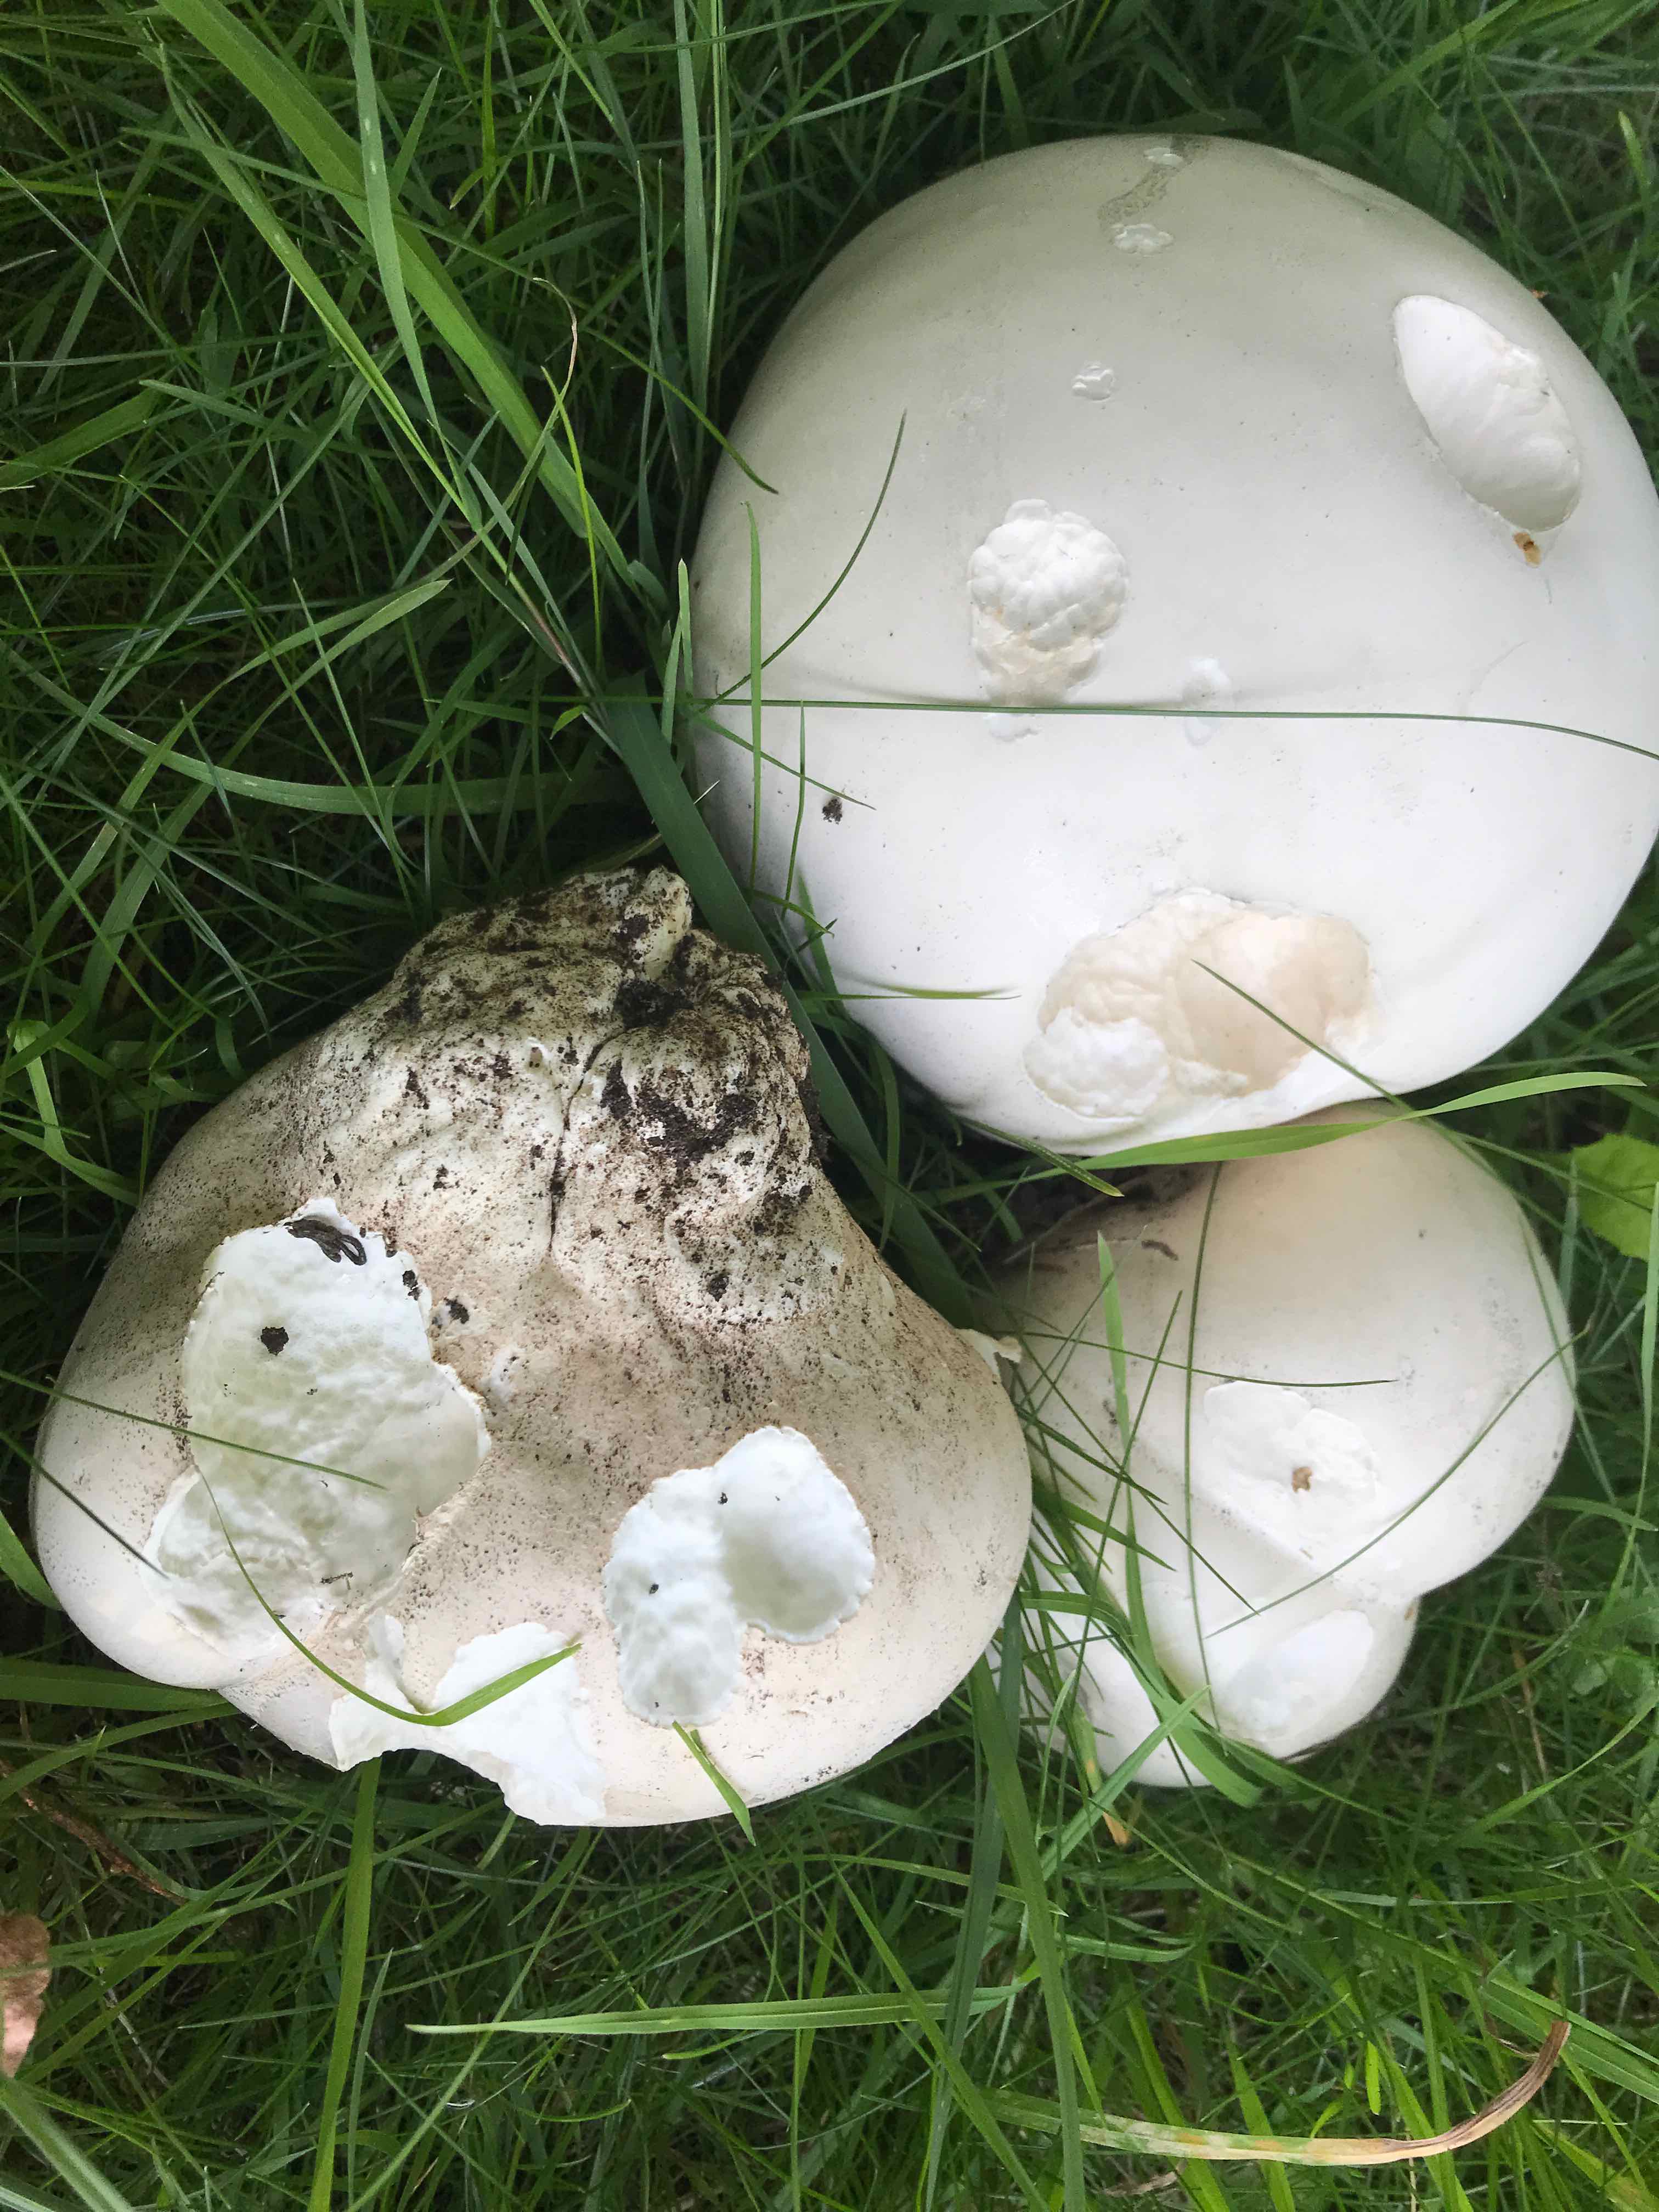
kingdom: Fungi
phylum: Basidiomycota
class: Agaricomycetes
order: Agaricales
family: Lycoperdaceae
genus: Calvatia
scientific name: Calvatia gigantea
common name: kæmpestøvbold
